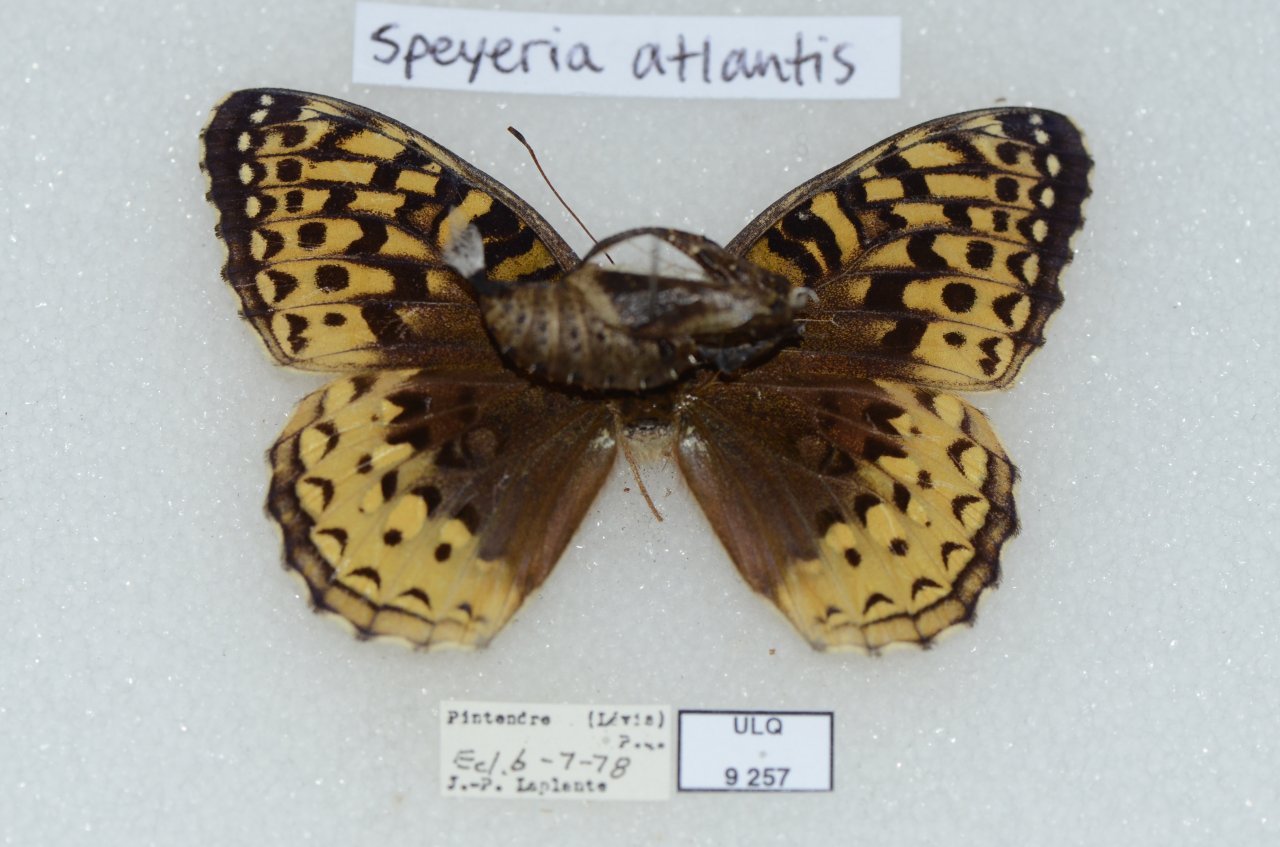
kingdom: Animalia
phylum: Arthropoda
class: Insecta
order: Lepidoptera
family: Nymphalidae
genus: Speyeria
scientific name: Speyeria cybele
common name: Great Spangled Fritillary
